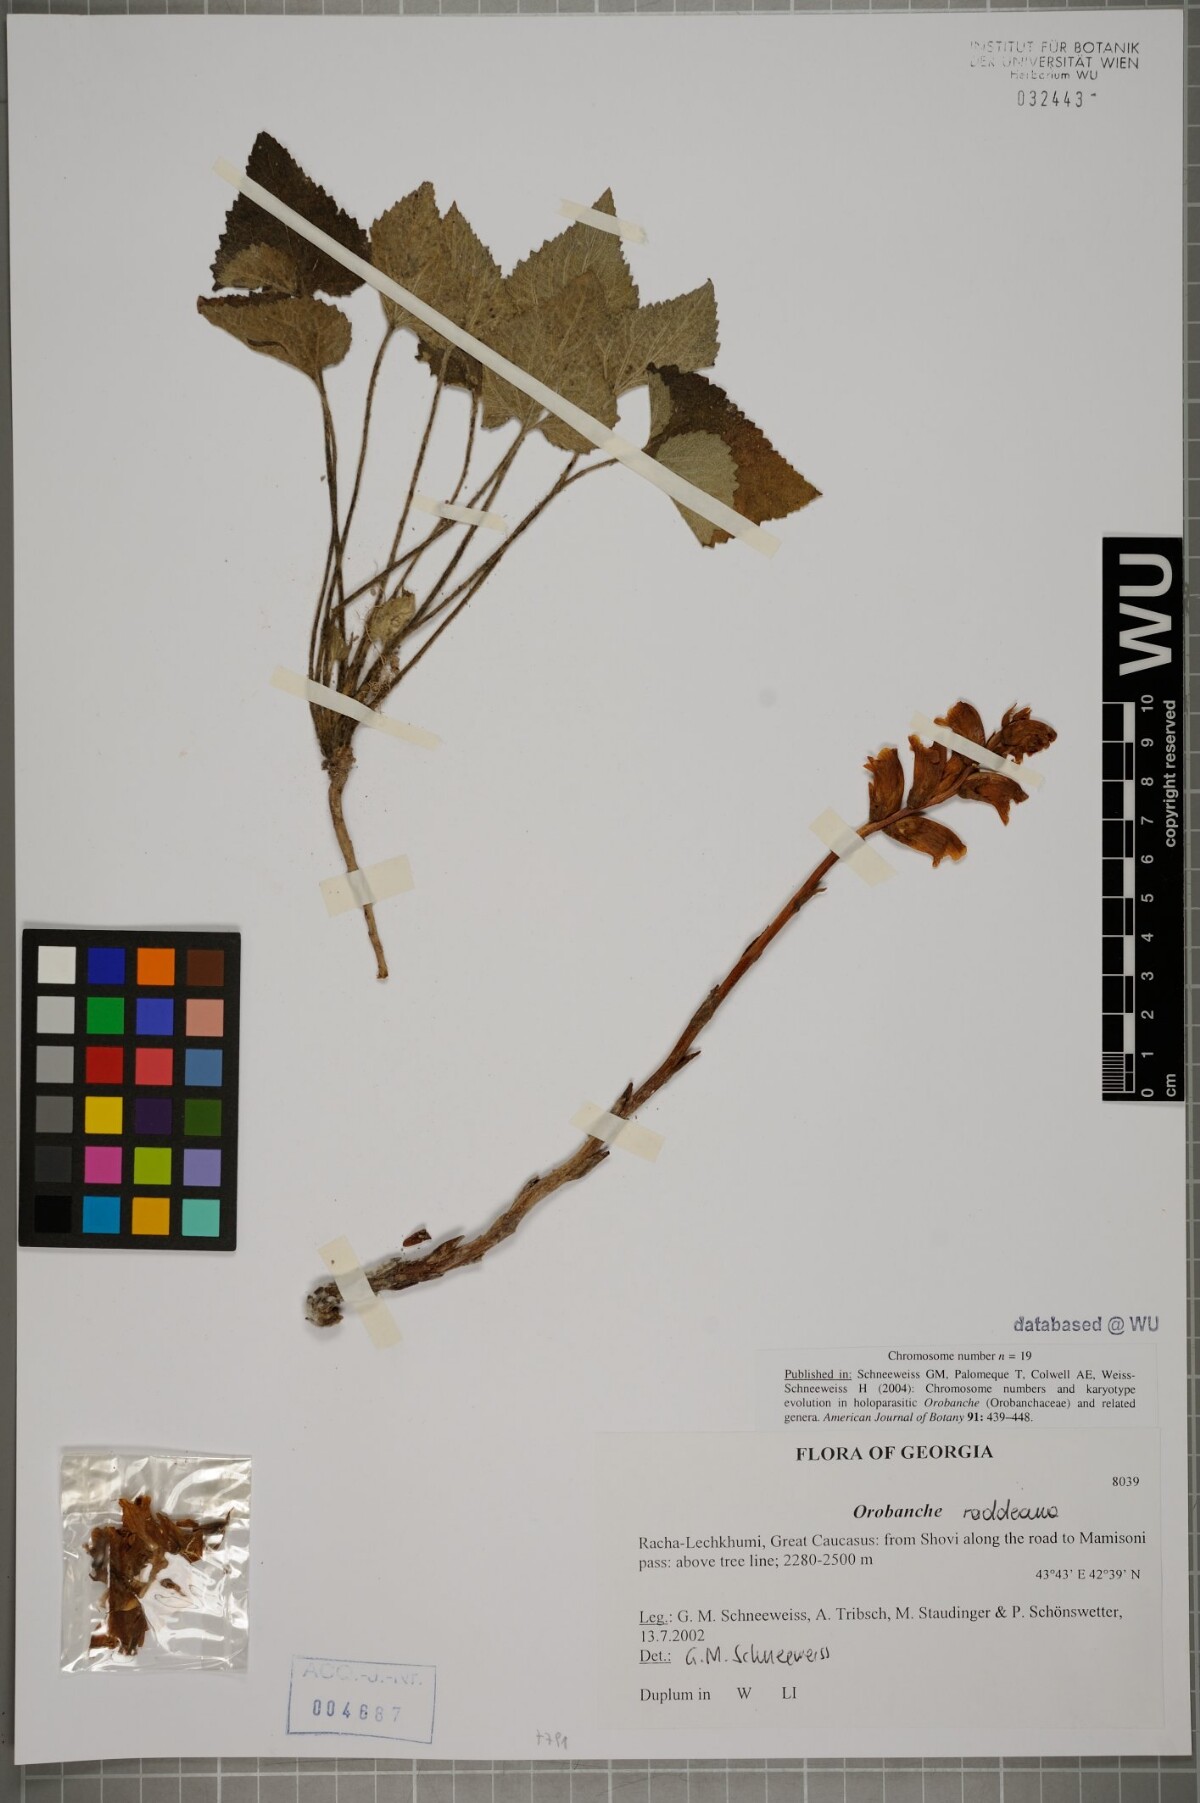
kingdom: Plantae
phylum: Tracheophyta
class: Magnoliopsida
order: Lamiales
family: Orobanchaceae
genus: Orobanche
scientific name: Orobanche alba
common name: Thyme broomrape
